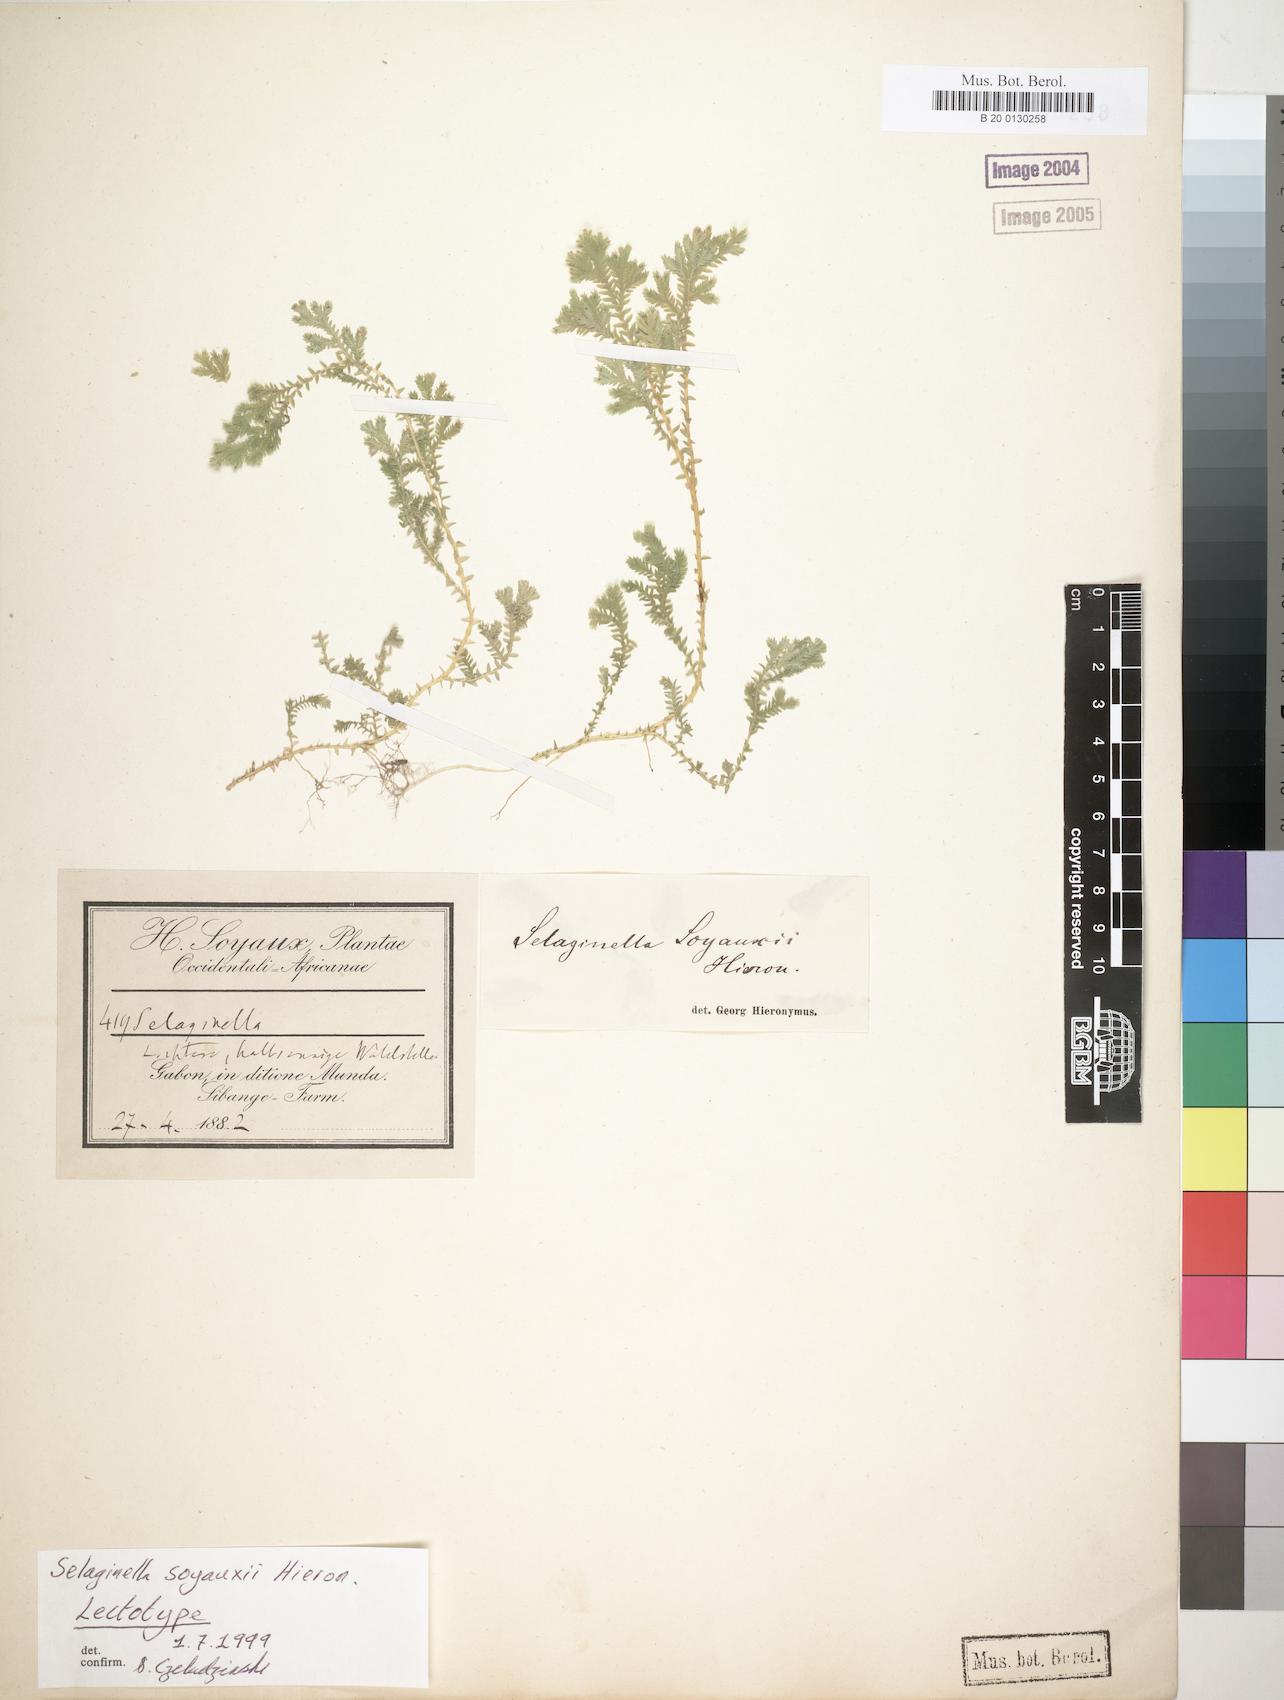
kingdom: Plantae
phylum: Tracheophyta
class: Lycopodiopsida
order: Selaginellales
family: Selaginellaceae
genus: Selaginella
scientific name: Selaginella
